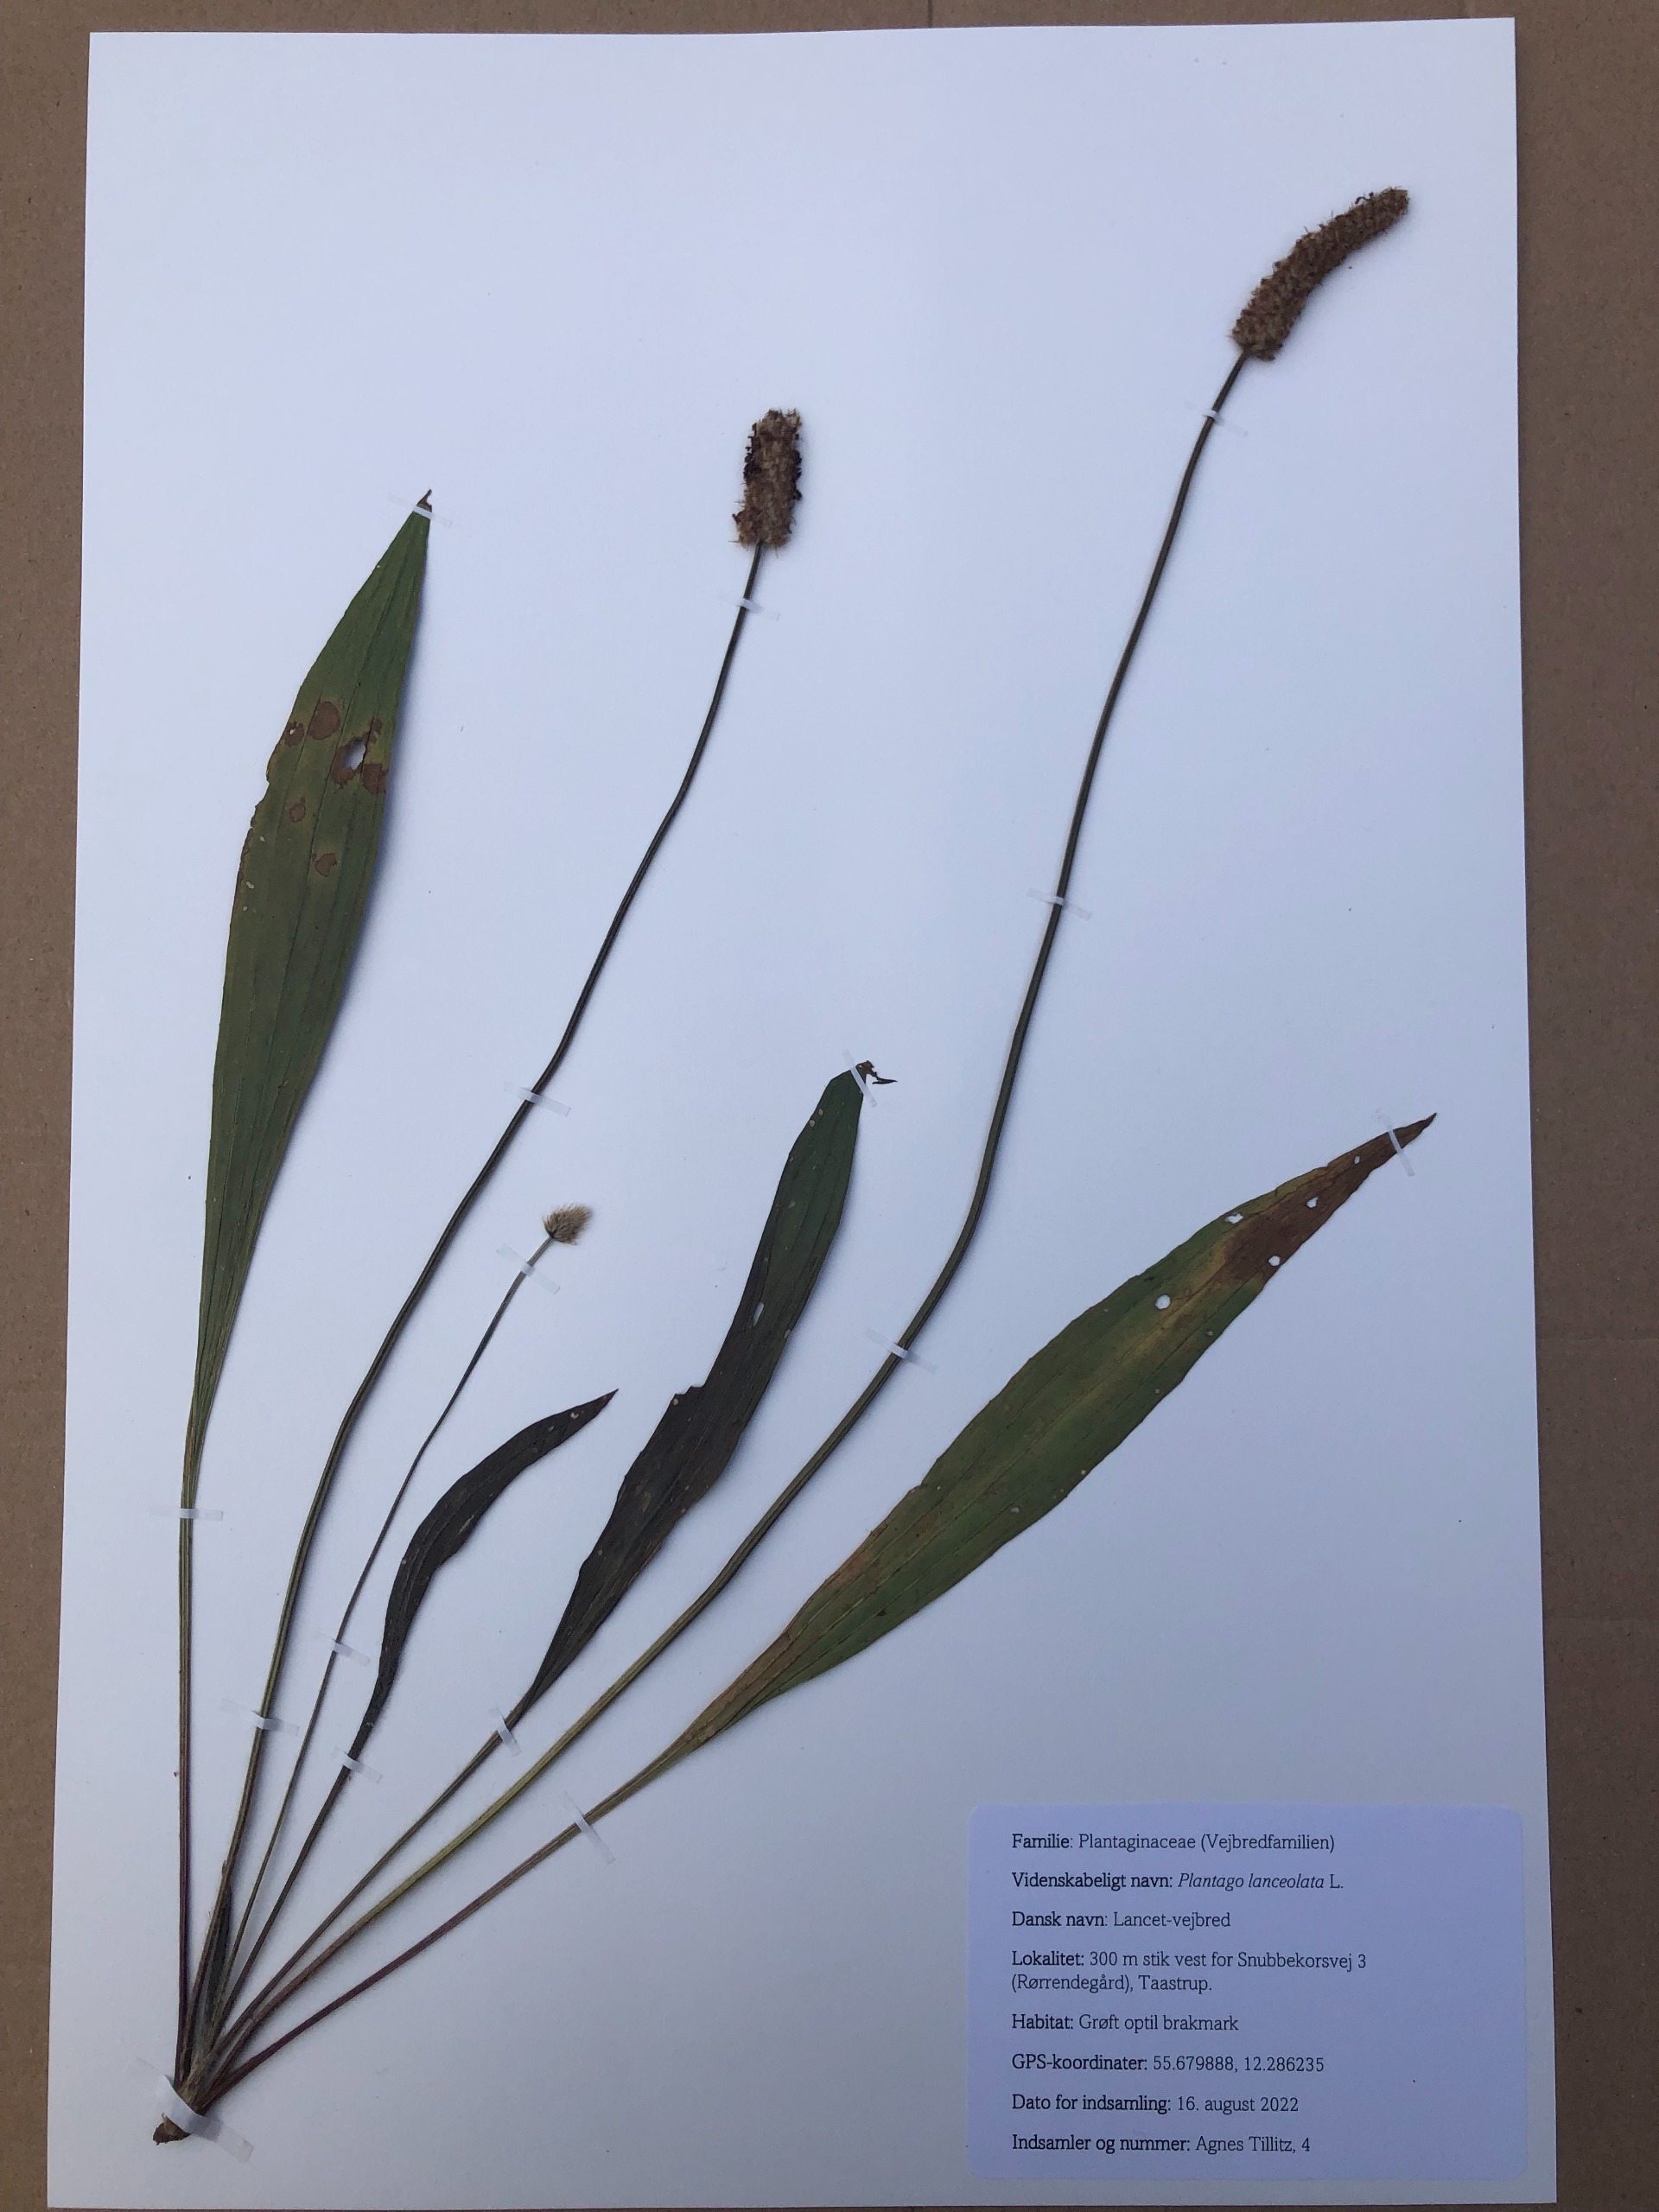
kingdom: Plantae
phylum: Tracheophyta
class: Magnoliopsida
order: Lamiales
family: Plantaginaceae
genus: Plantago
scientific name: Plantago lanceolata
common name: Lancet-vejbred
